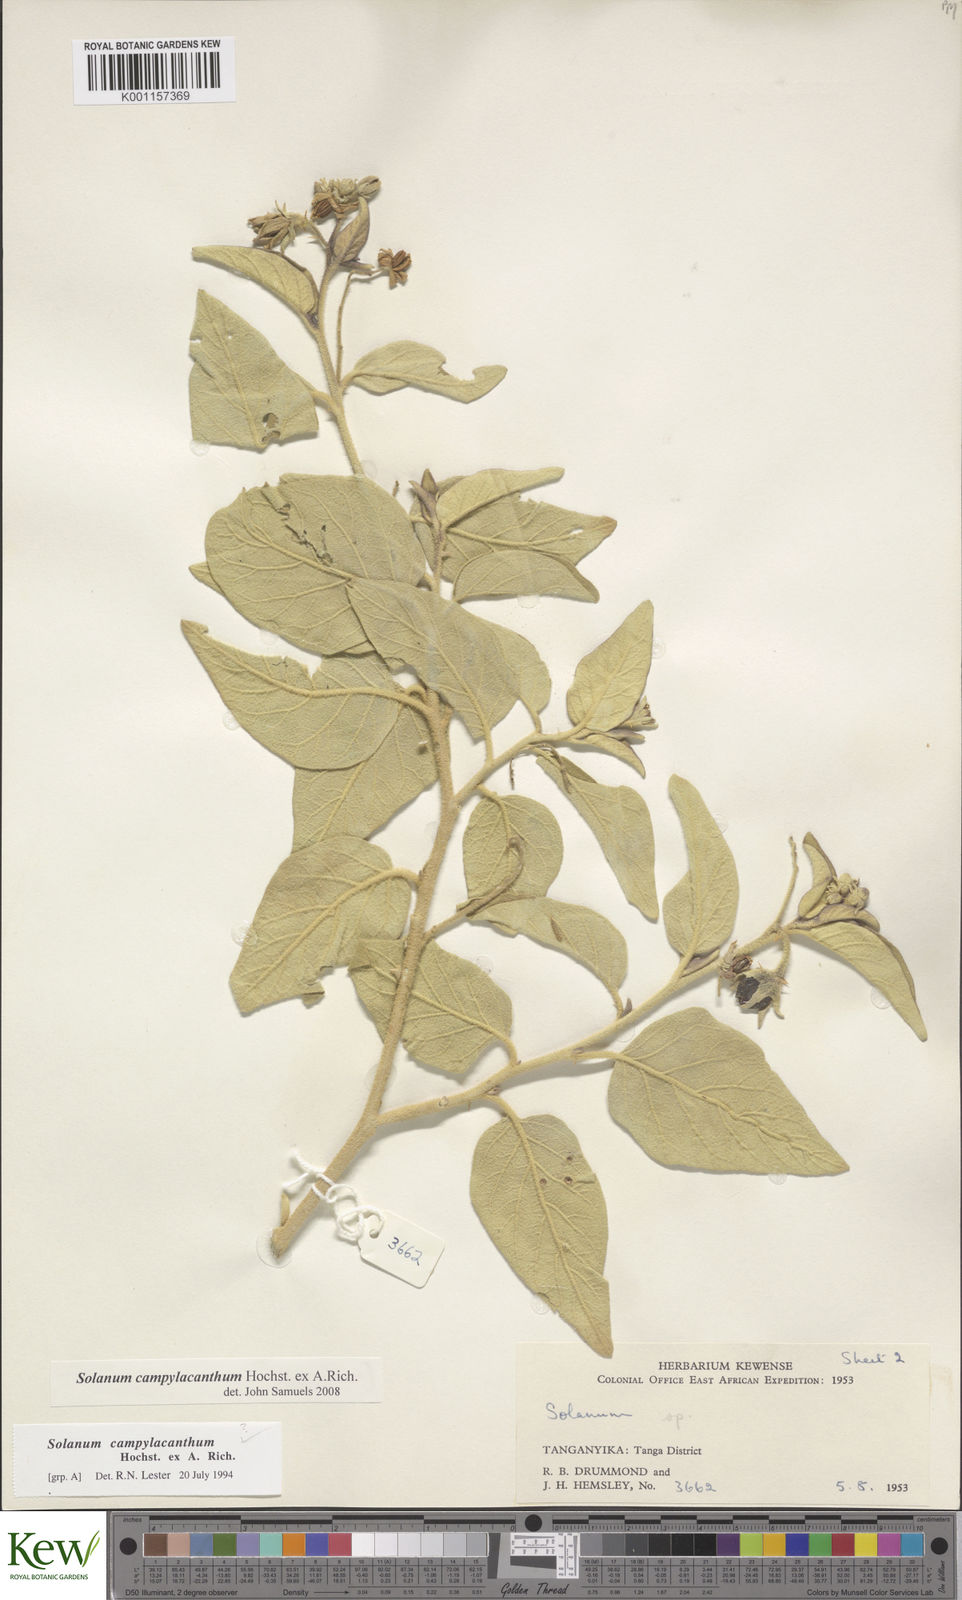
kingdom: Plantae
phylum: Tracheophyta
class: Magnoliopsida
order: Solanales
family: Solanaceae
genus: Solanum
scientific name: Solanum campylacanthum
